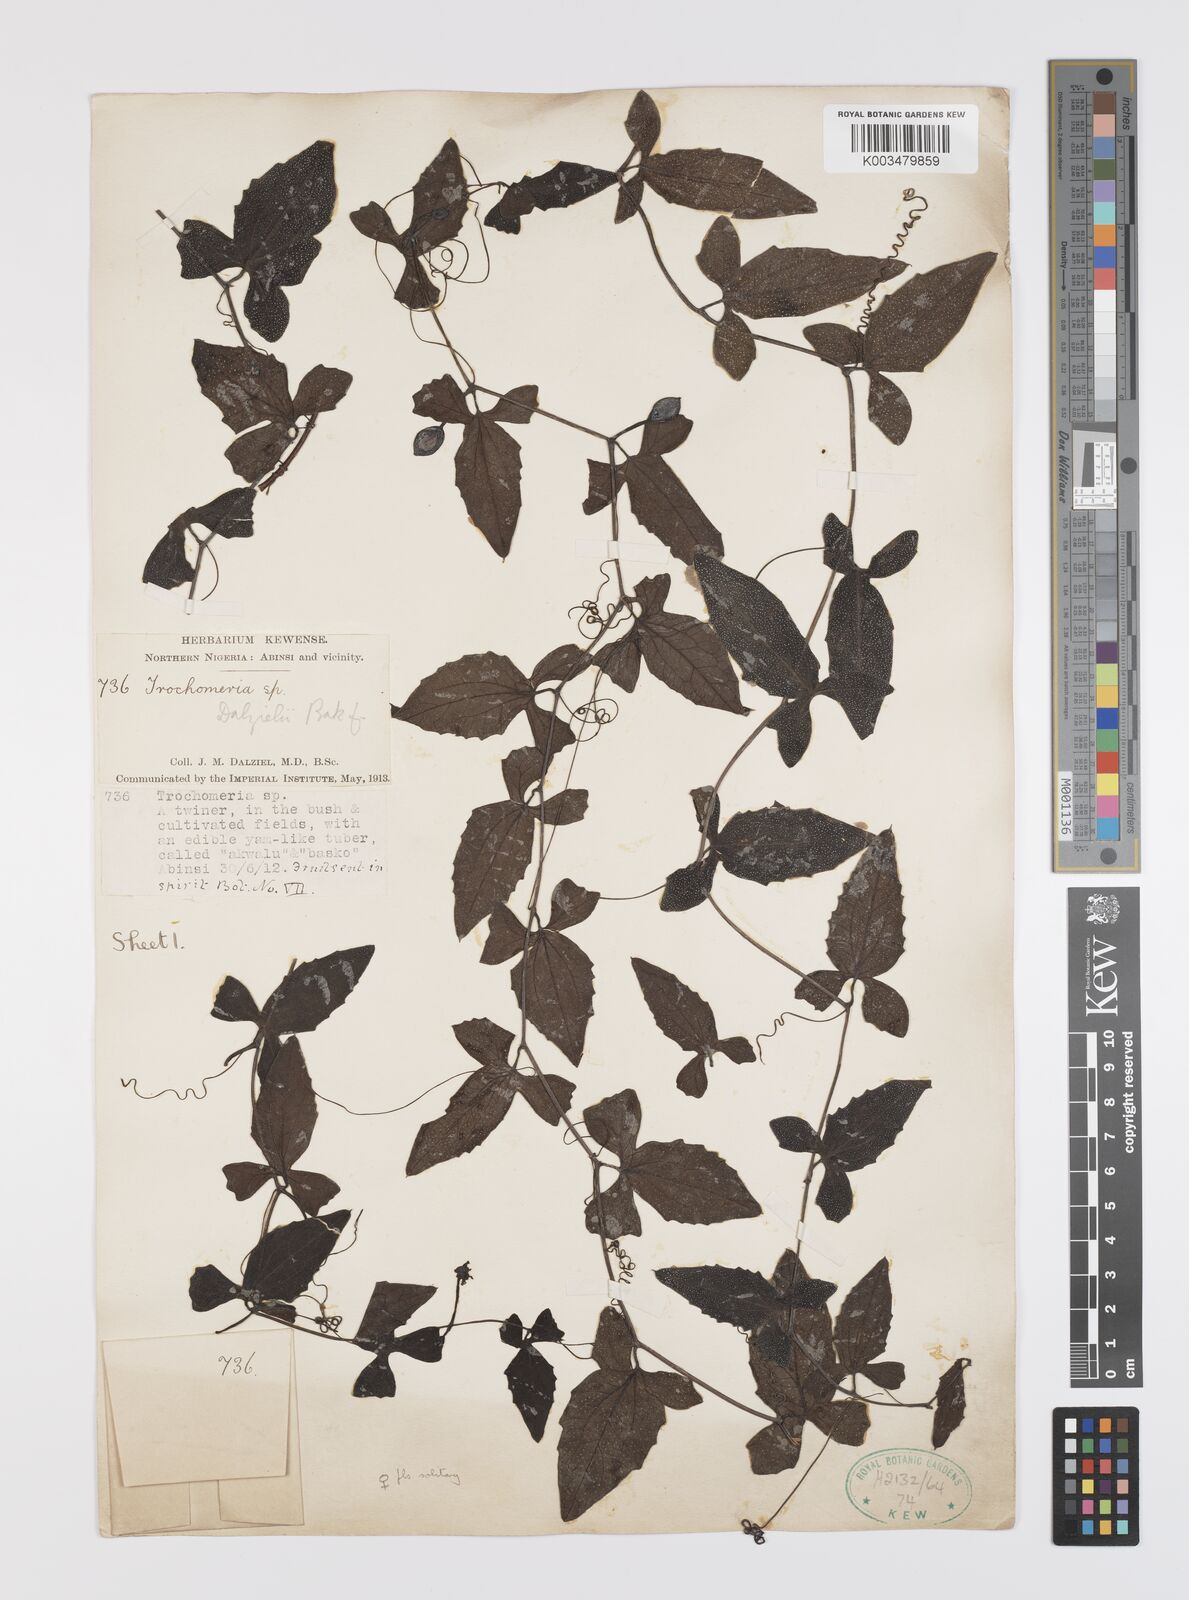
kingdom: Plantae
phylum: Tracheophyta
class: Magnoliopsida
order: Cucurbitales
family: Cucurbitaceae
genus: Trochomeria
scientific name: Trochomeria macrocarpa
